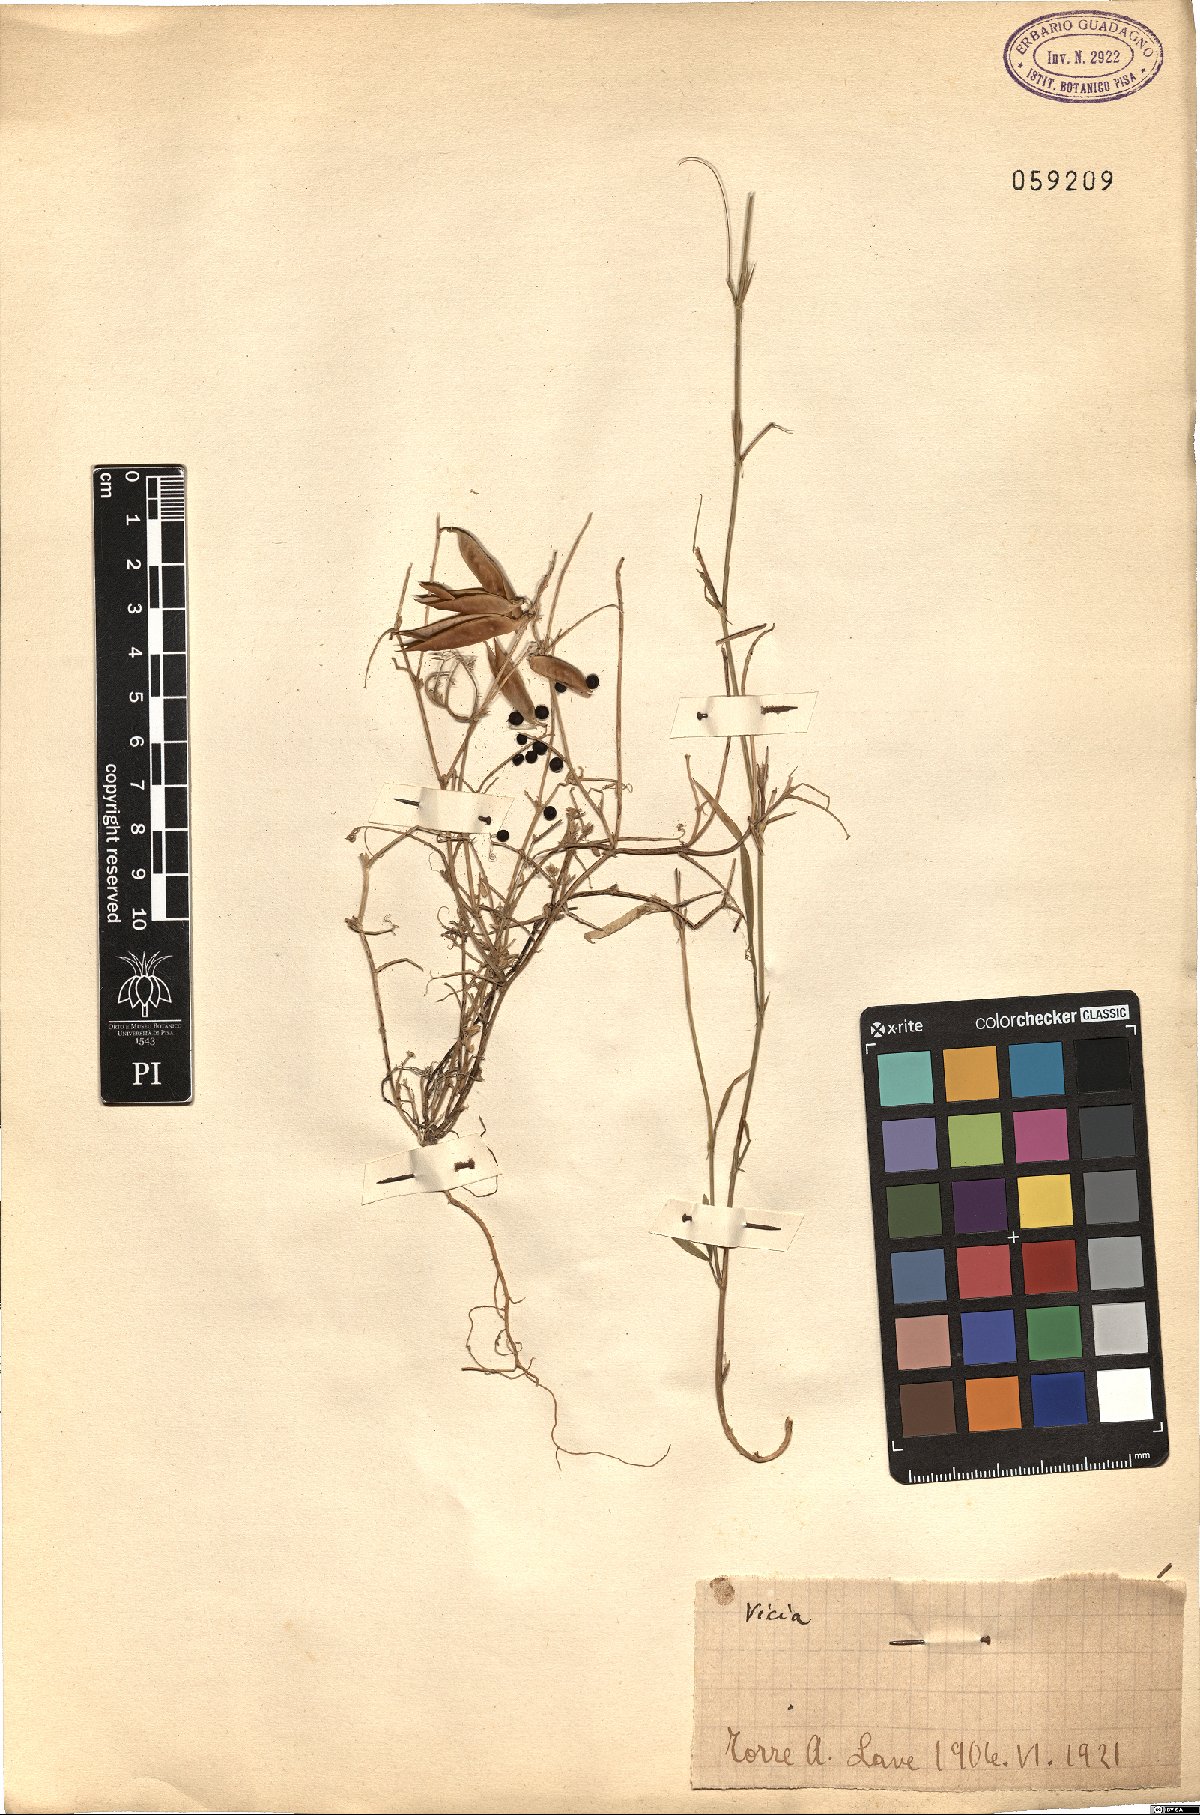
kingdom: Plantae
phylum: Tracheophyta
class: Magnoliopsida
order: Fabales
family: Fabaceae
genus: Vicia
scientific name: Vicia
